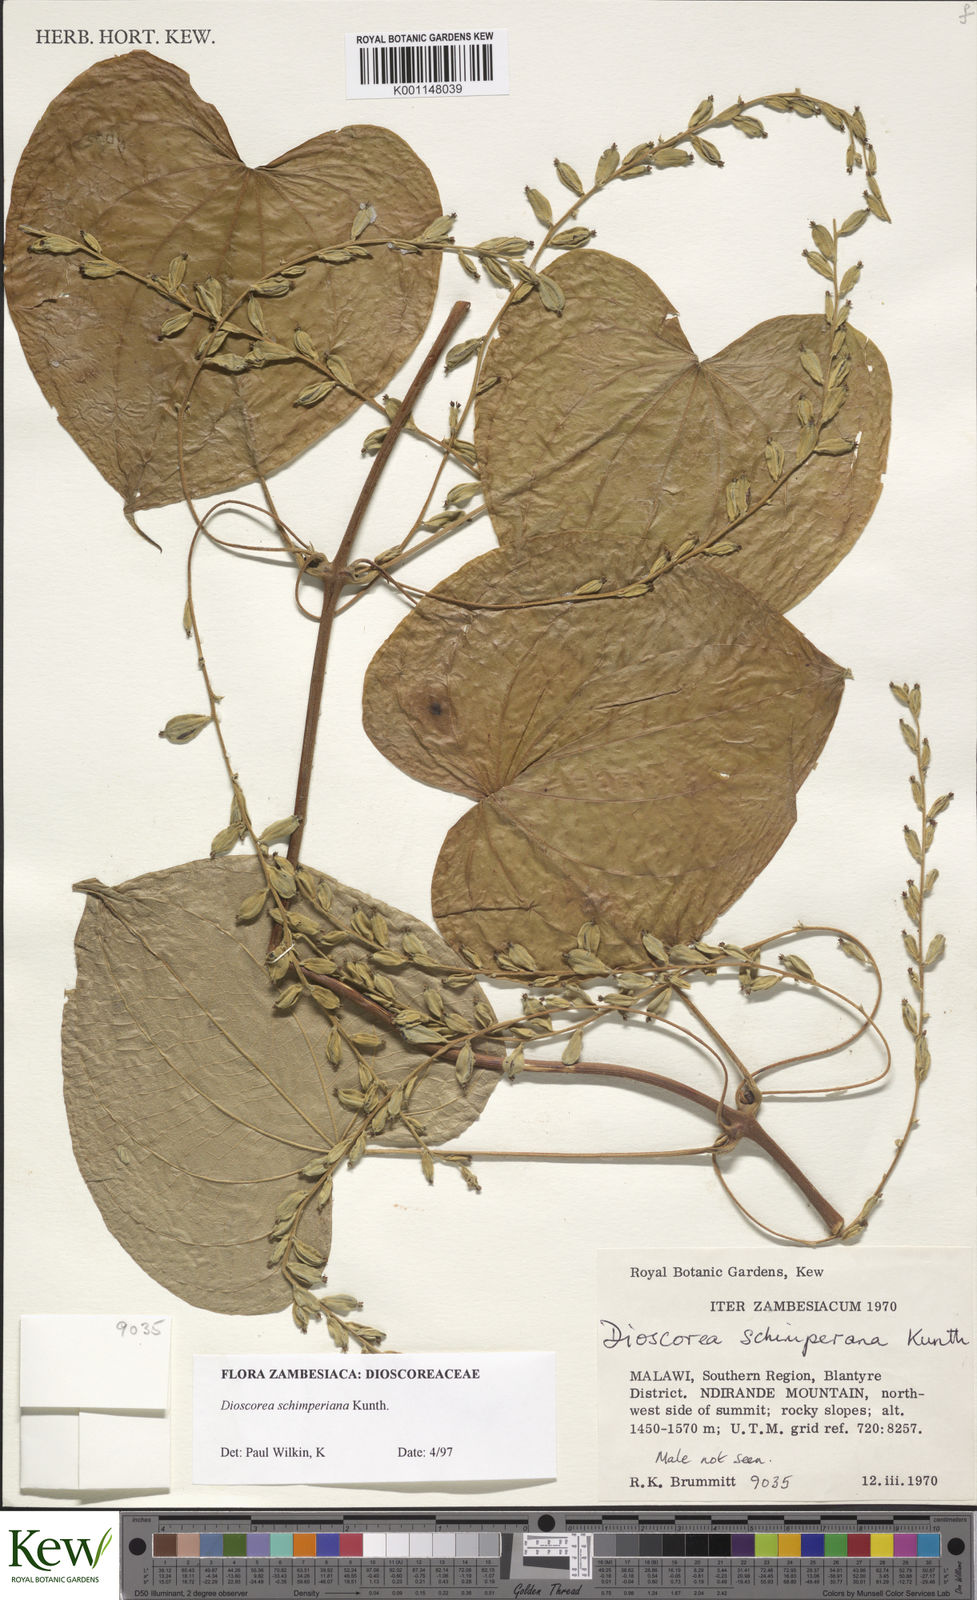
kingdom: Plantae
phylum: Tracheophyta
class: Liliopsida
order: Dioscoreales
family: Dioscoreaceae
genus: Dioscorea
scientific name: Dioscorea schimperiana
